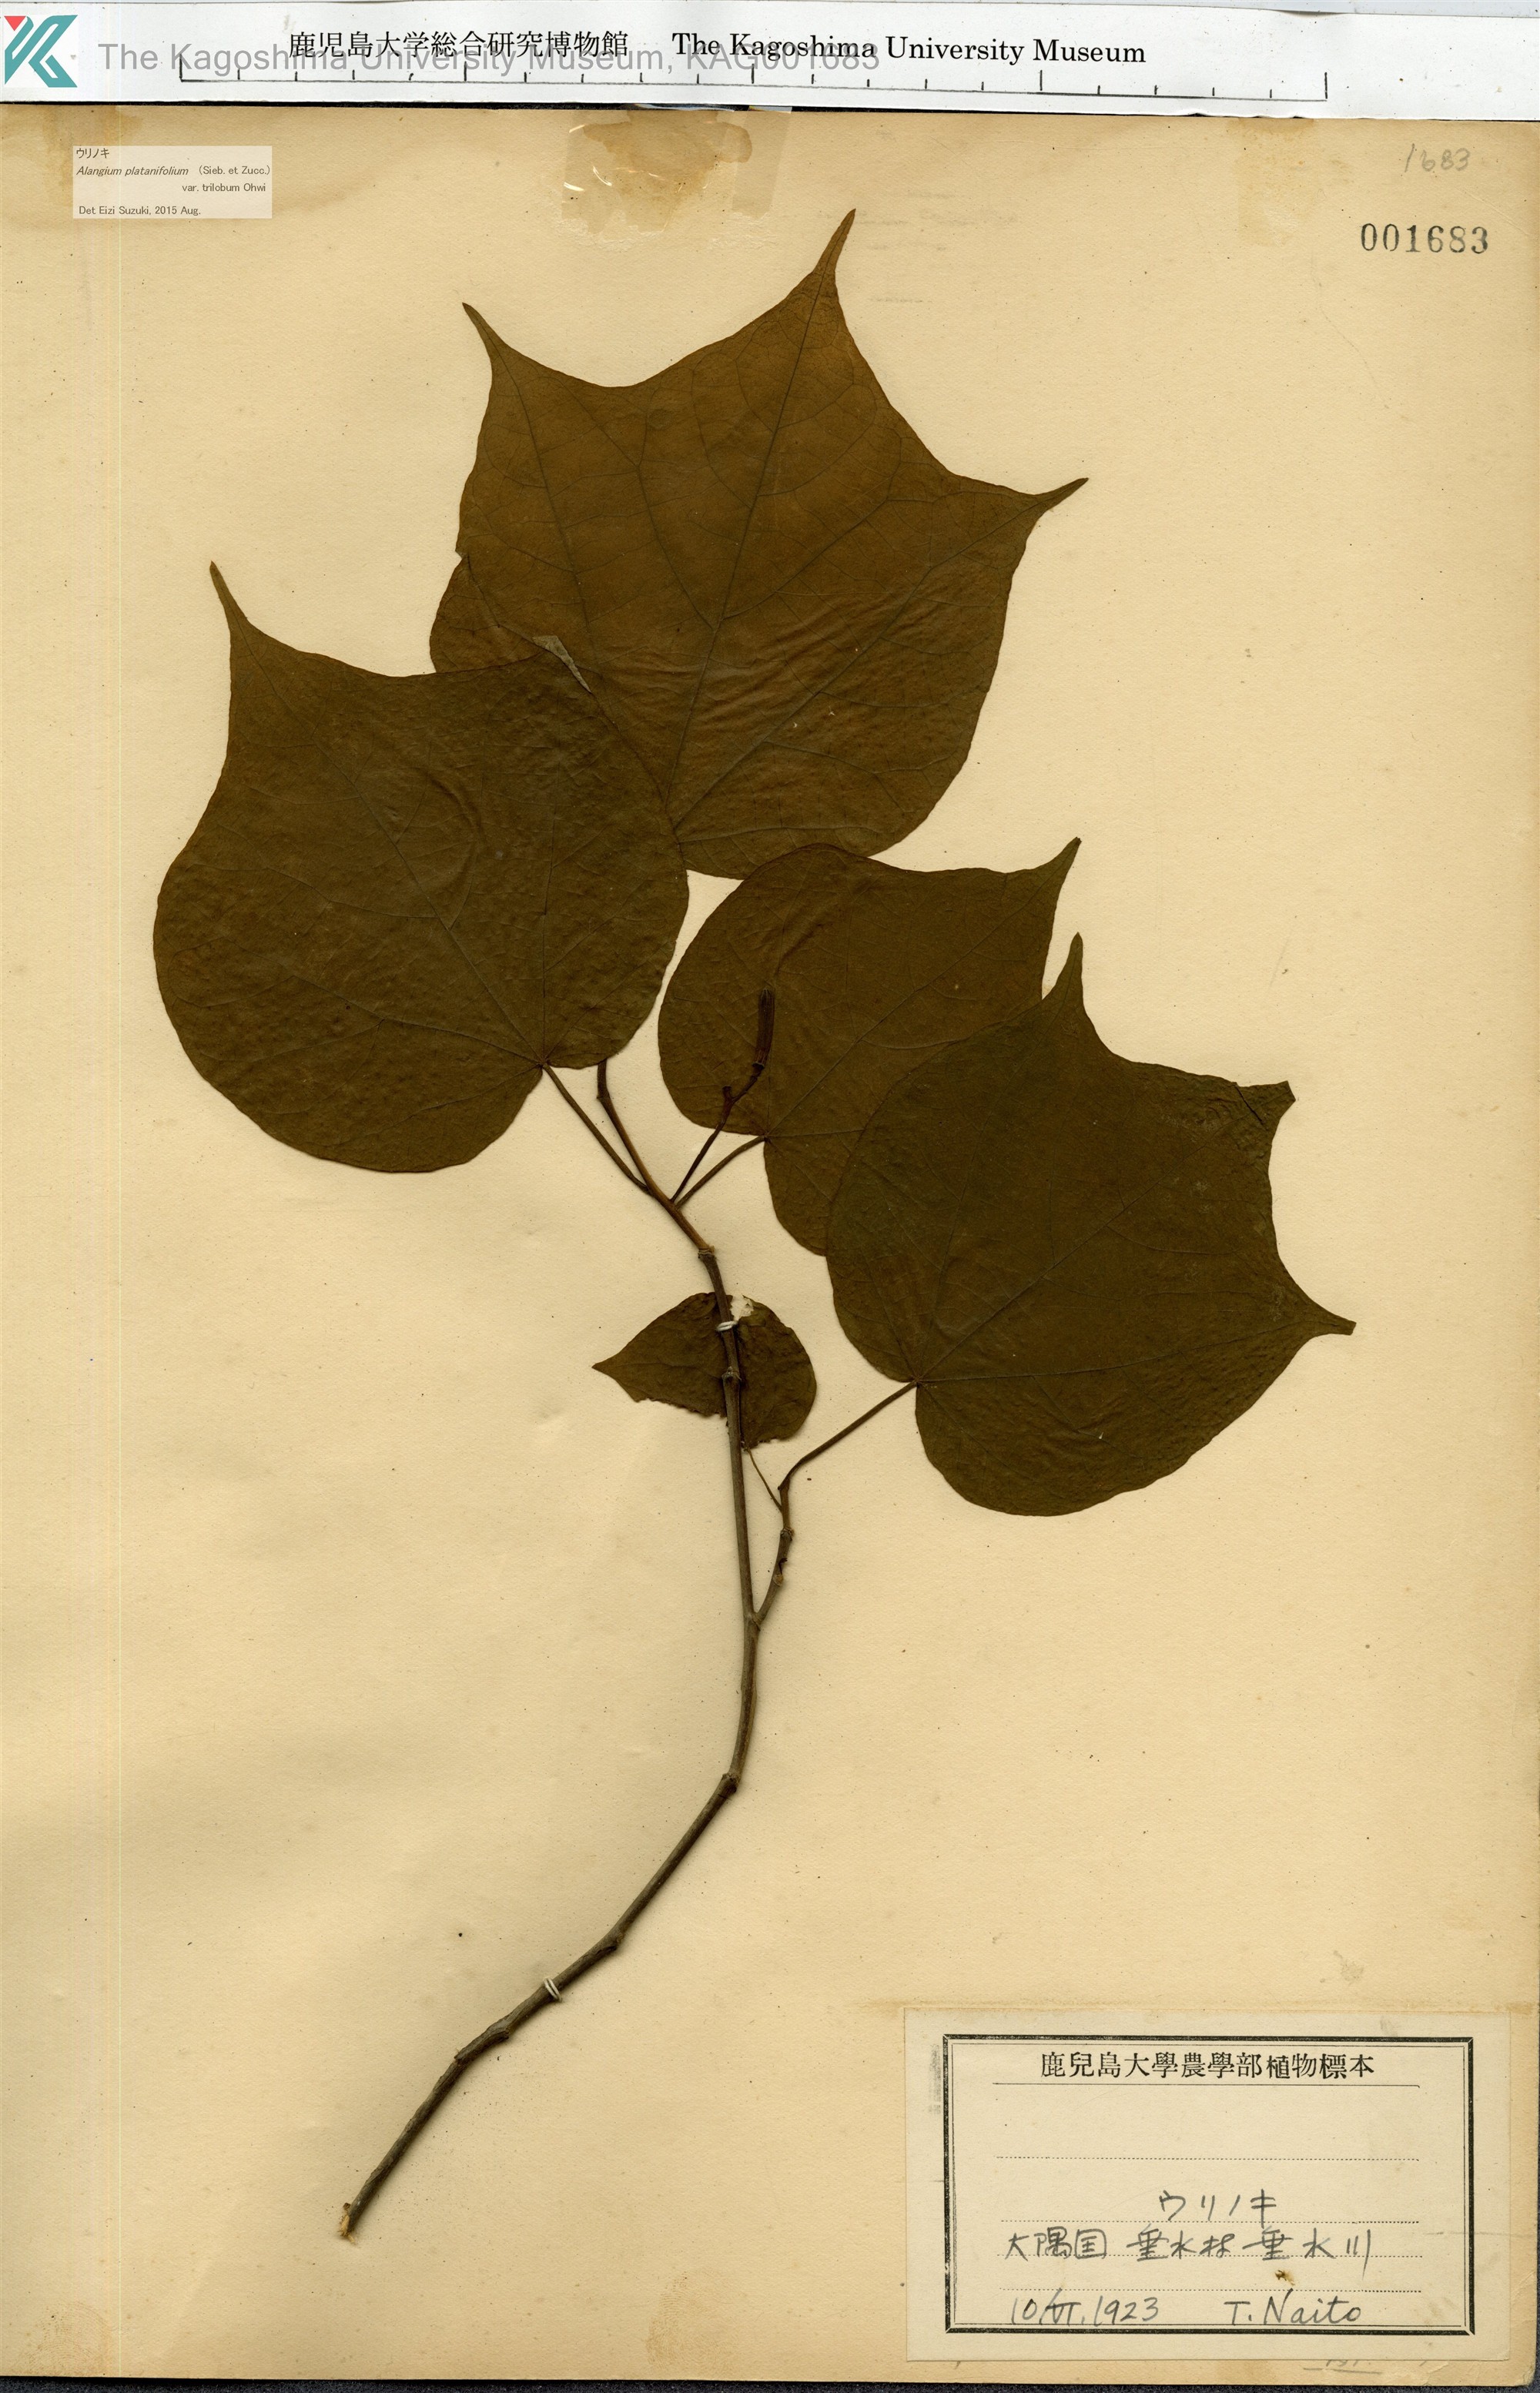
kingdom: Plantae
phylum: Tracheophyta
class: Magnoliopsida
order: Cornales
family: Cornaceae
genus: Alangium
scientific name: Alangium platanifolium
